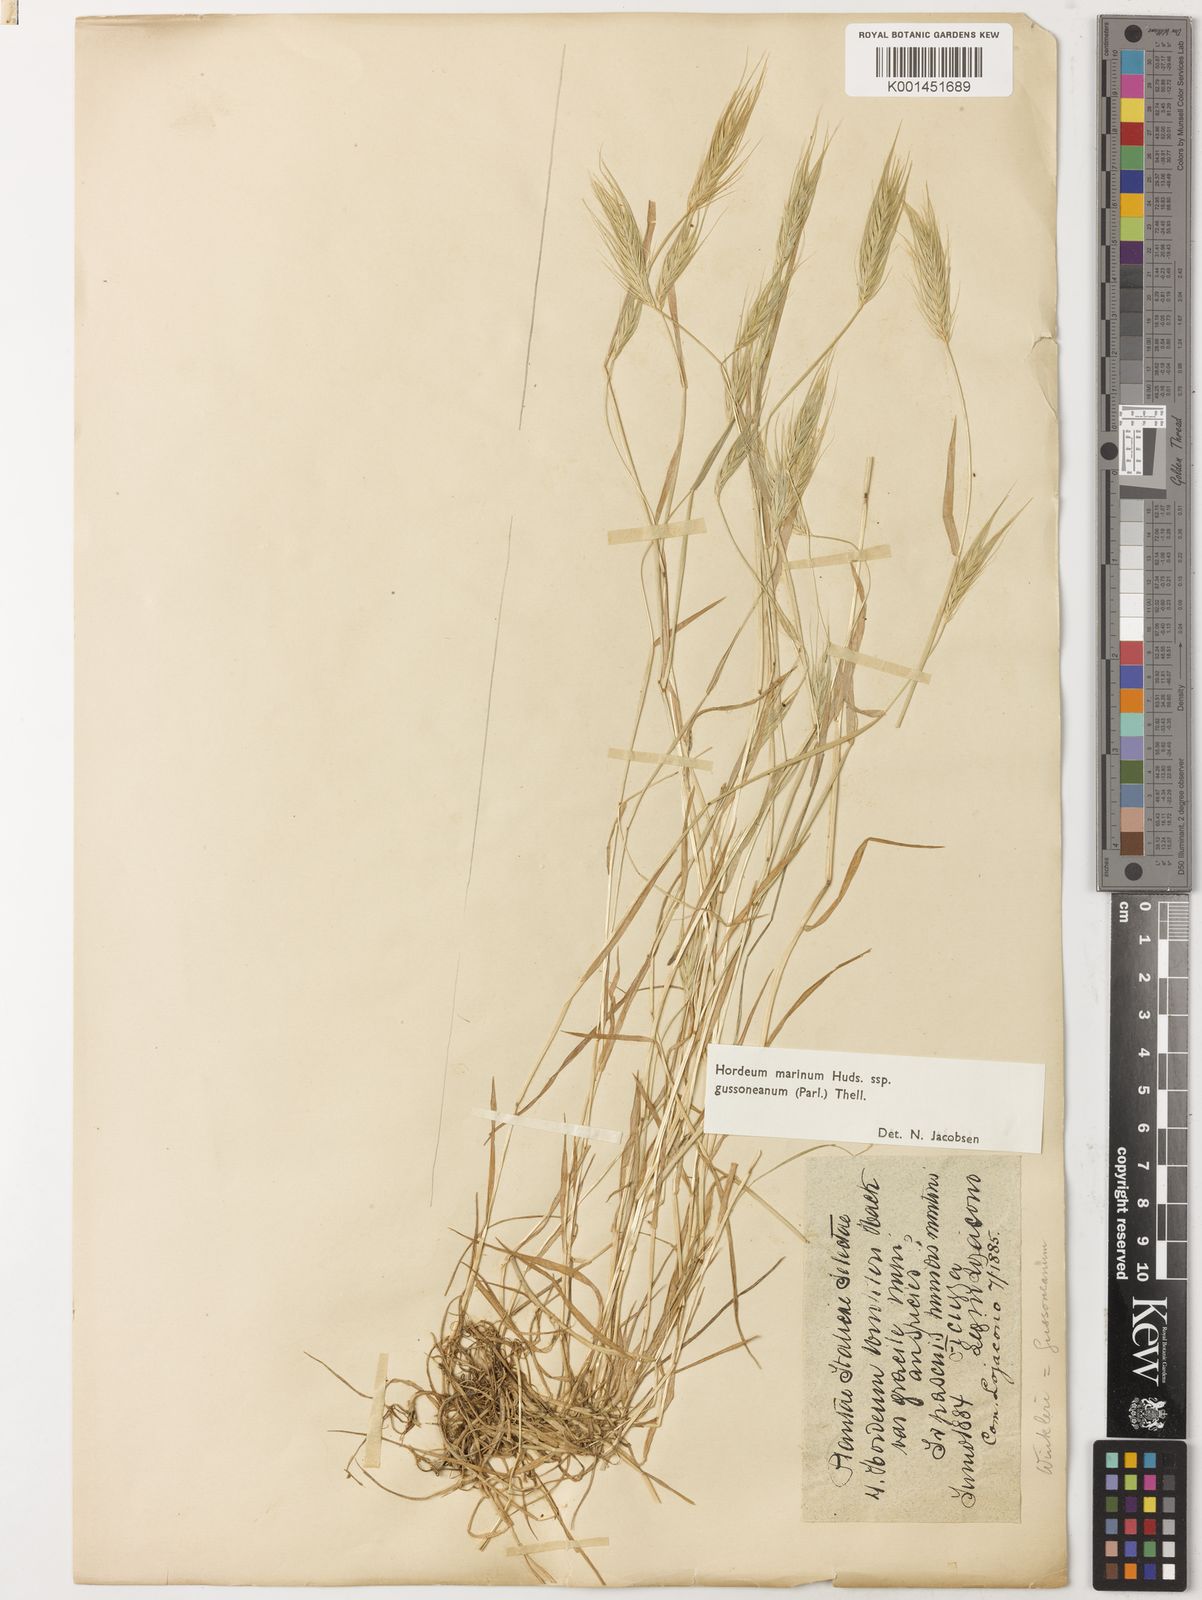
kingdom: Plantae
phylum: Tracheophyta
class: Liliopsida
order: Poales
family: Poaceae
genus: Hordeum
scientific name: Hordeum marinum
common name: Sea barley
